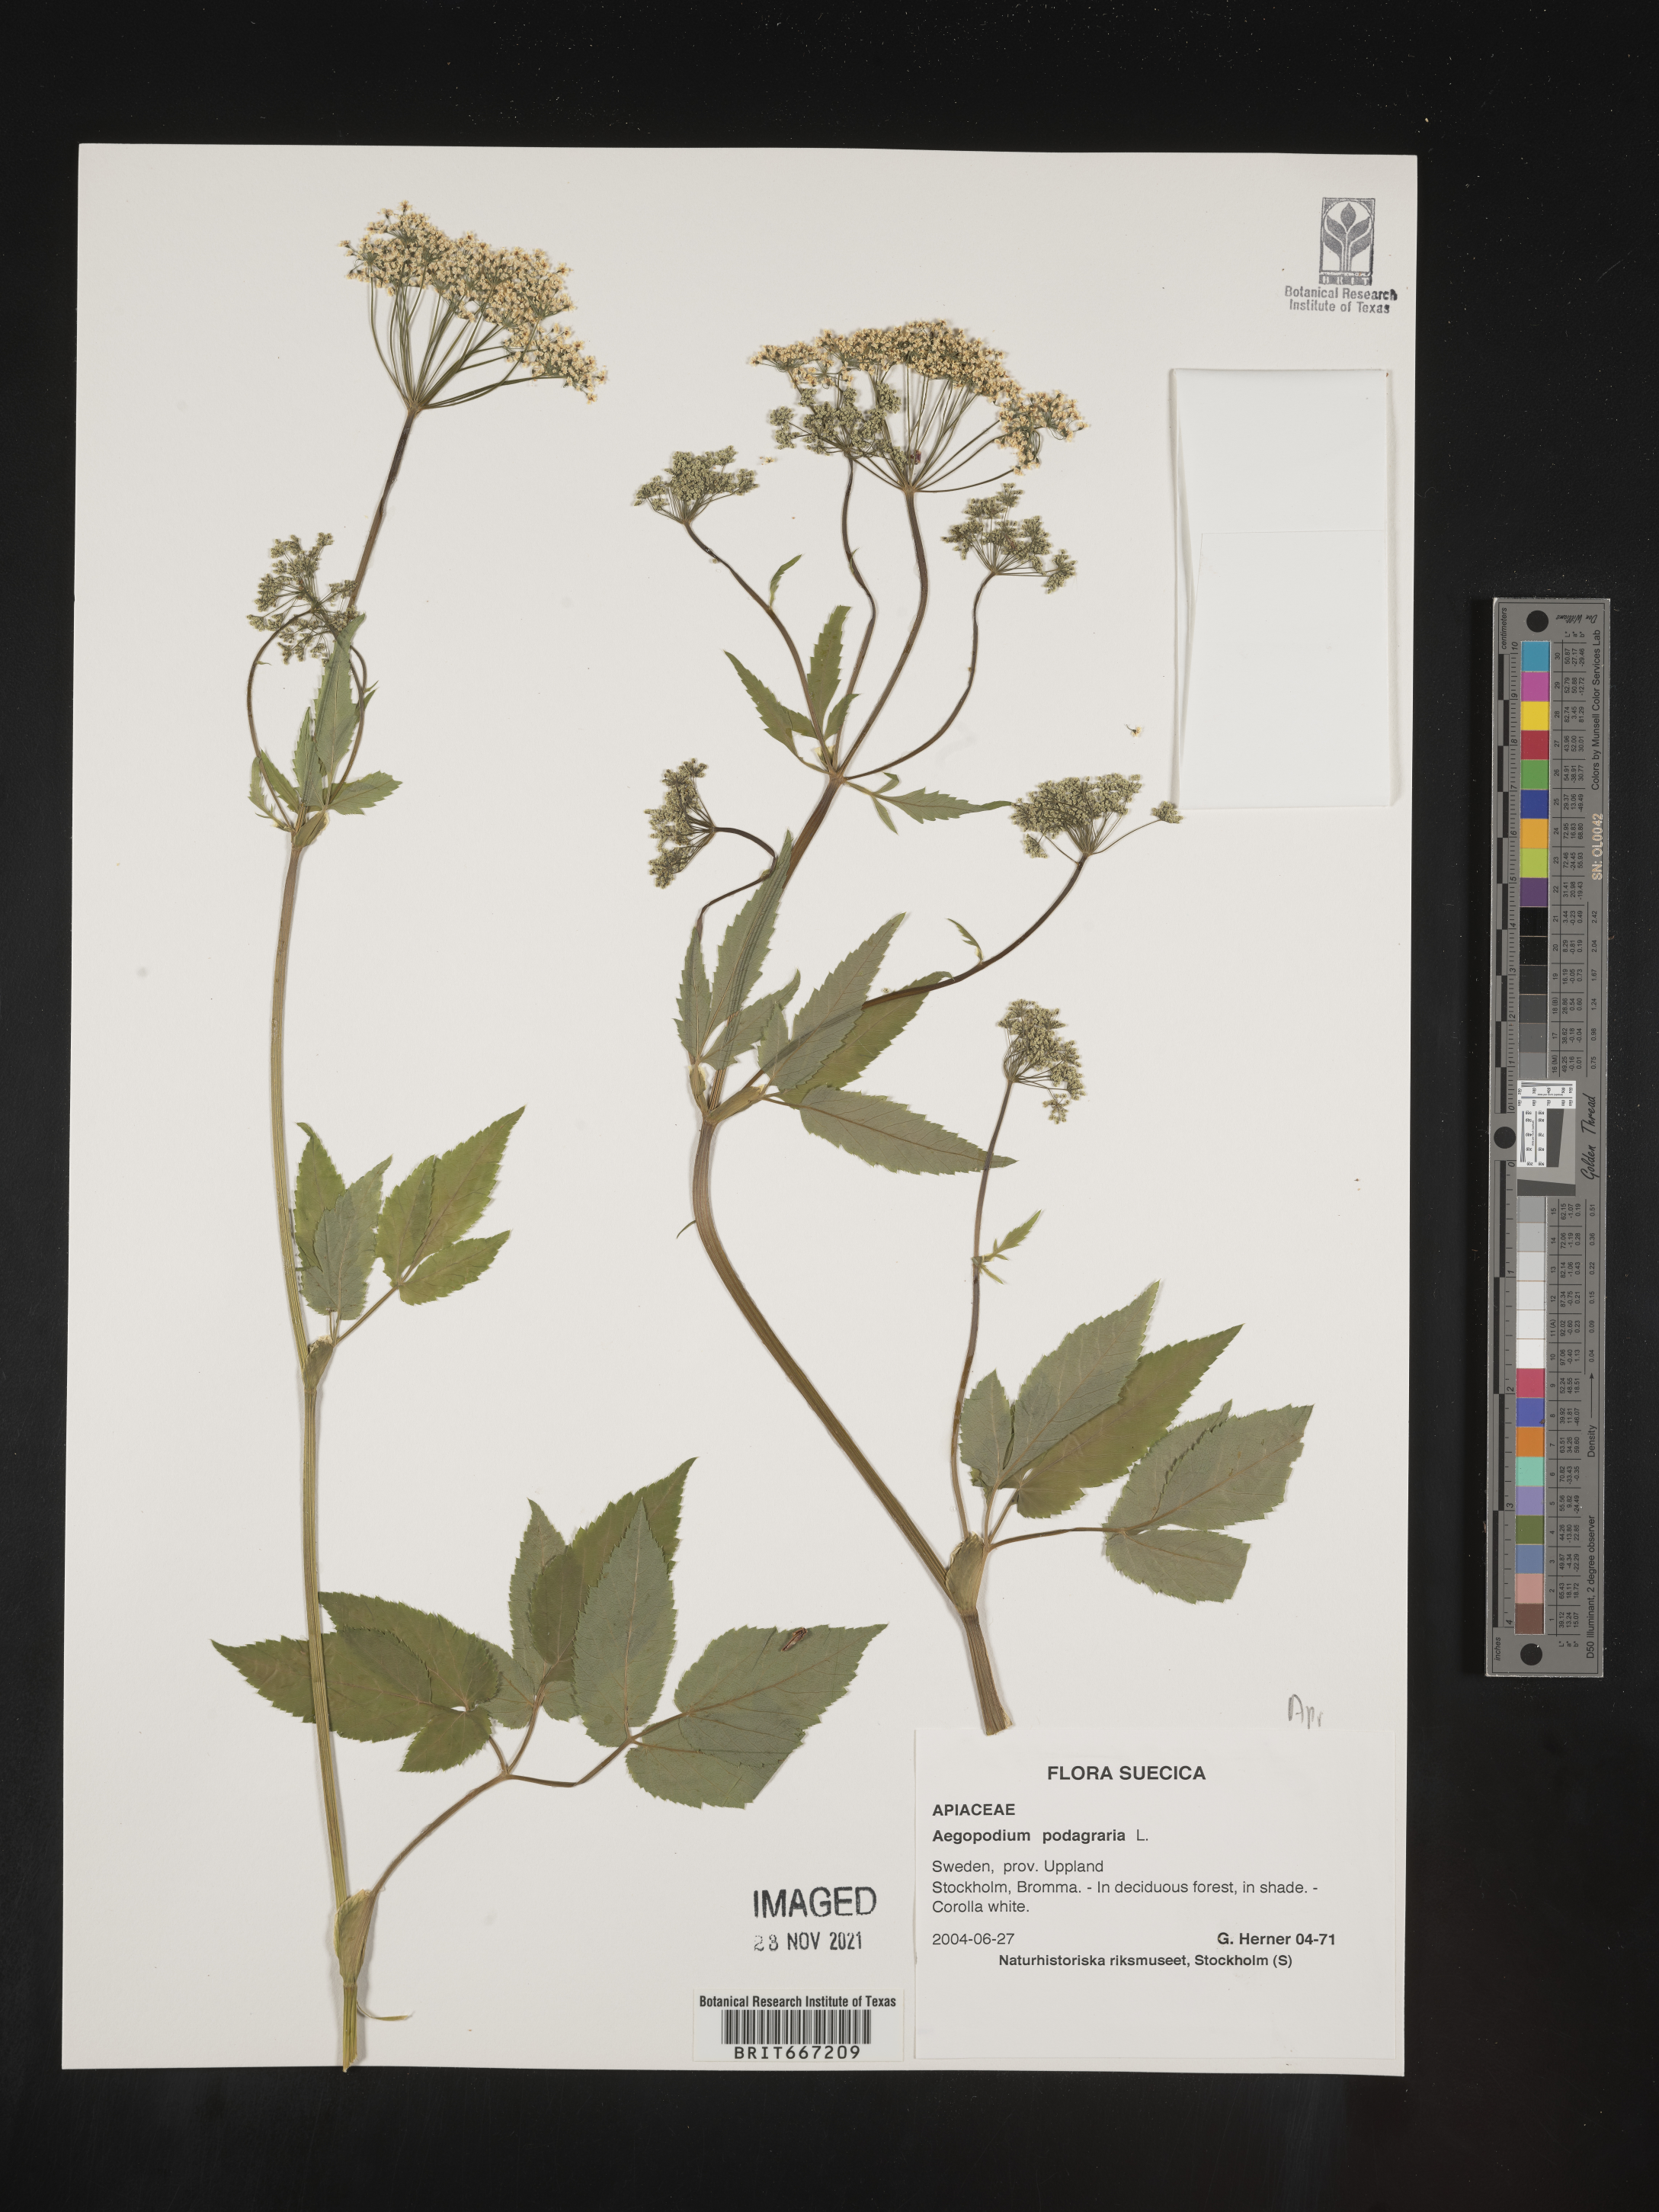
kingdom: Plantae
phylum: Tracheophyta
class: Magnoliopsida
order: Apiales
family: Apiaceae
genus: Aegopodium
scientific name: Aegopodium
